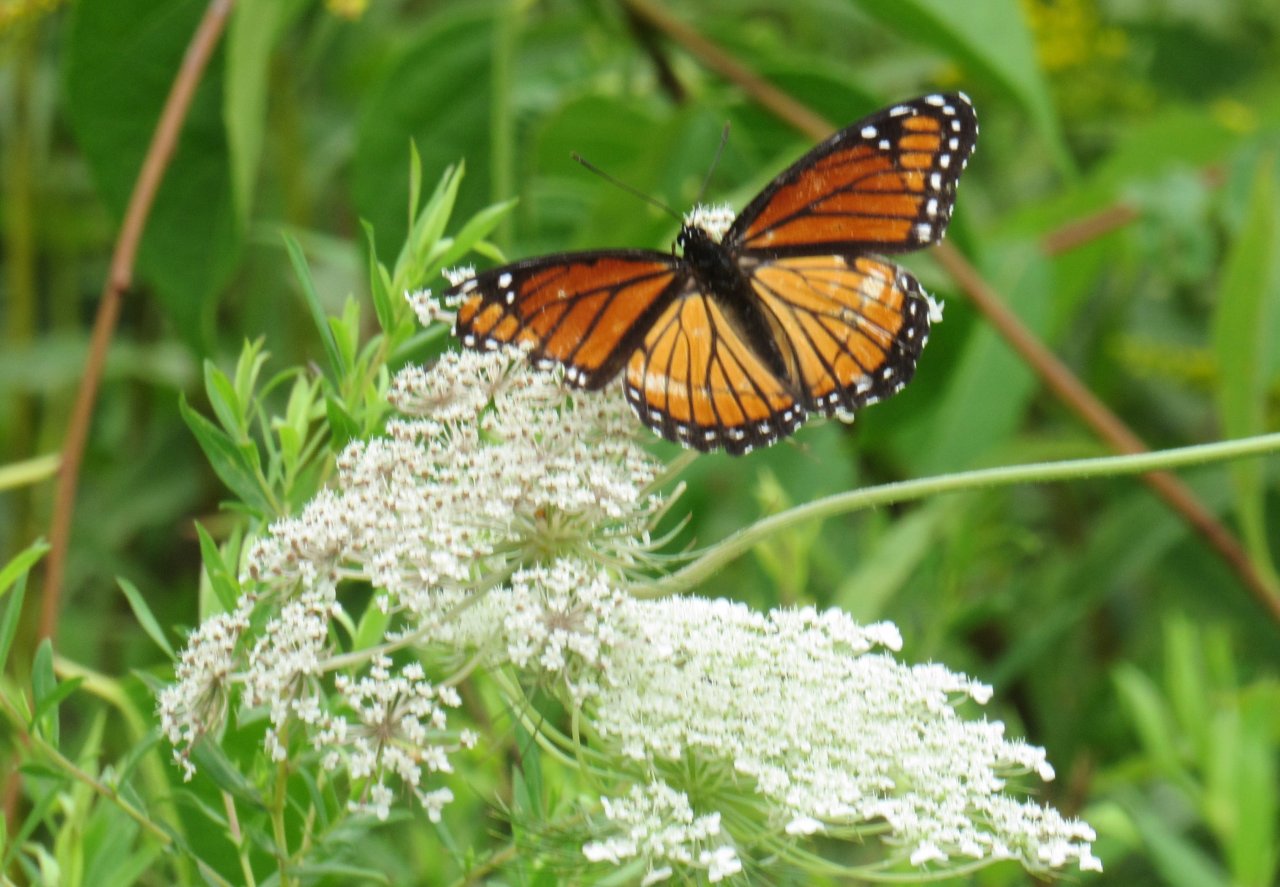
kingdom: Animalia
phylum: Arthropoda
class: Insecta
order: Lepidoptera
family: Nymphalidae
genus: Limenitis
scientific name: Limenitis archippus
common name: Viceroy
